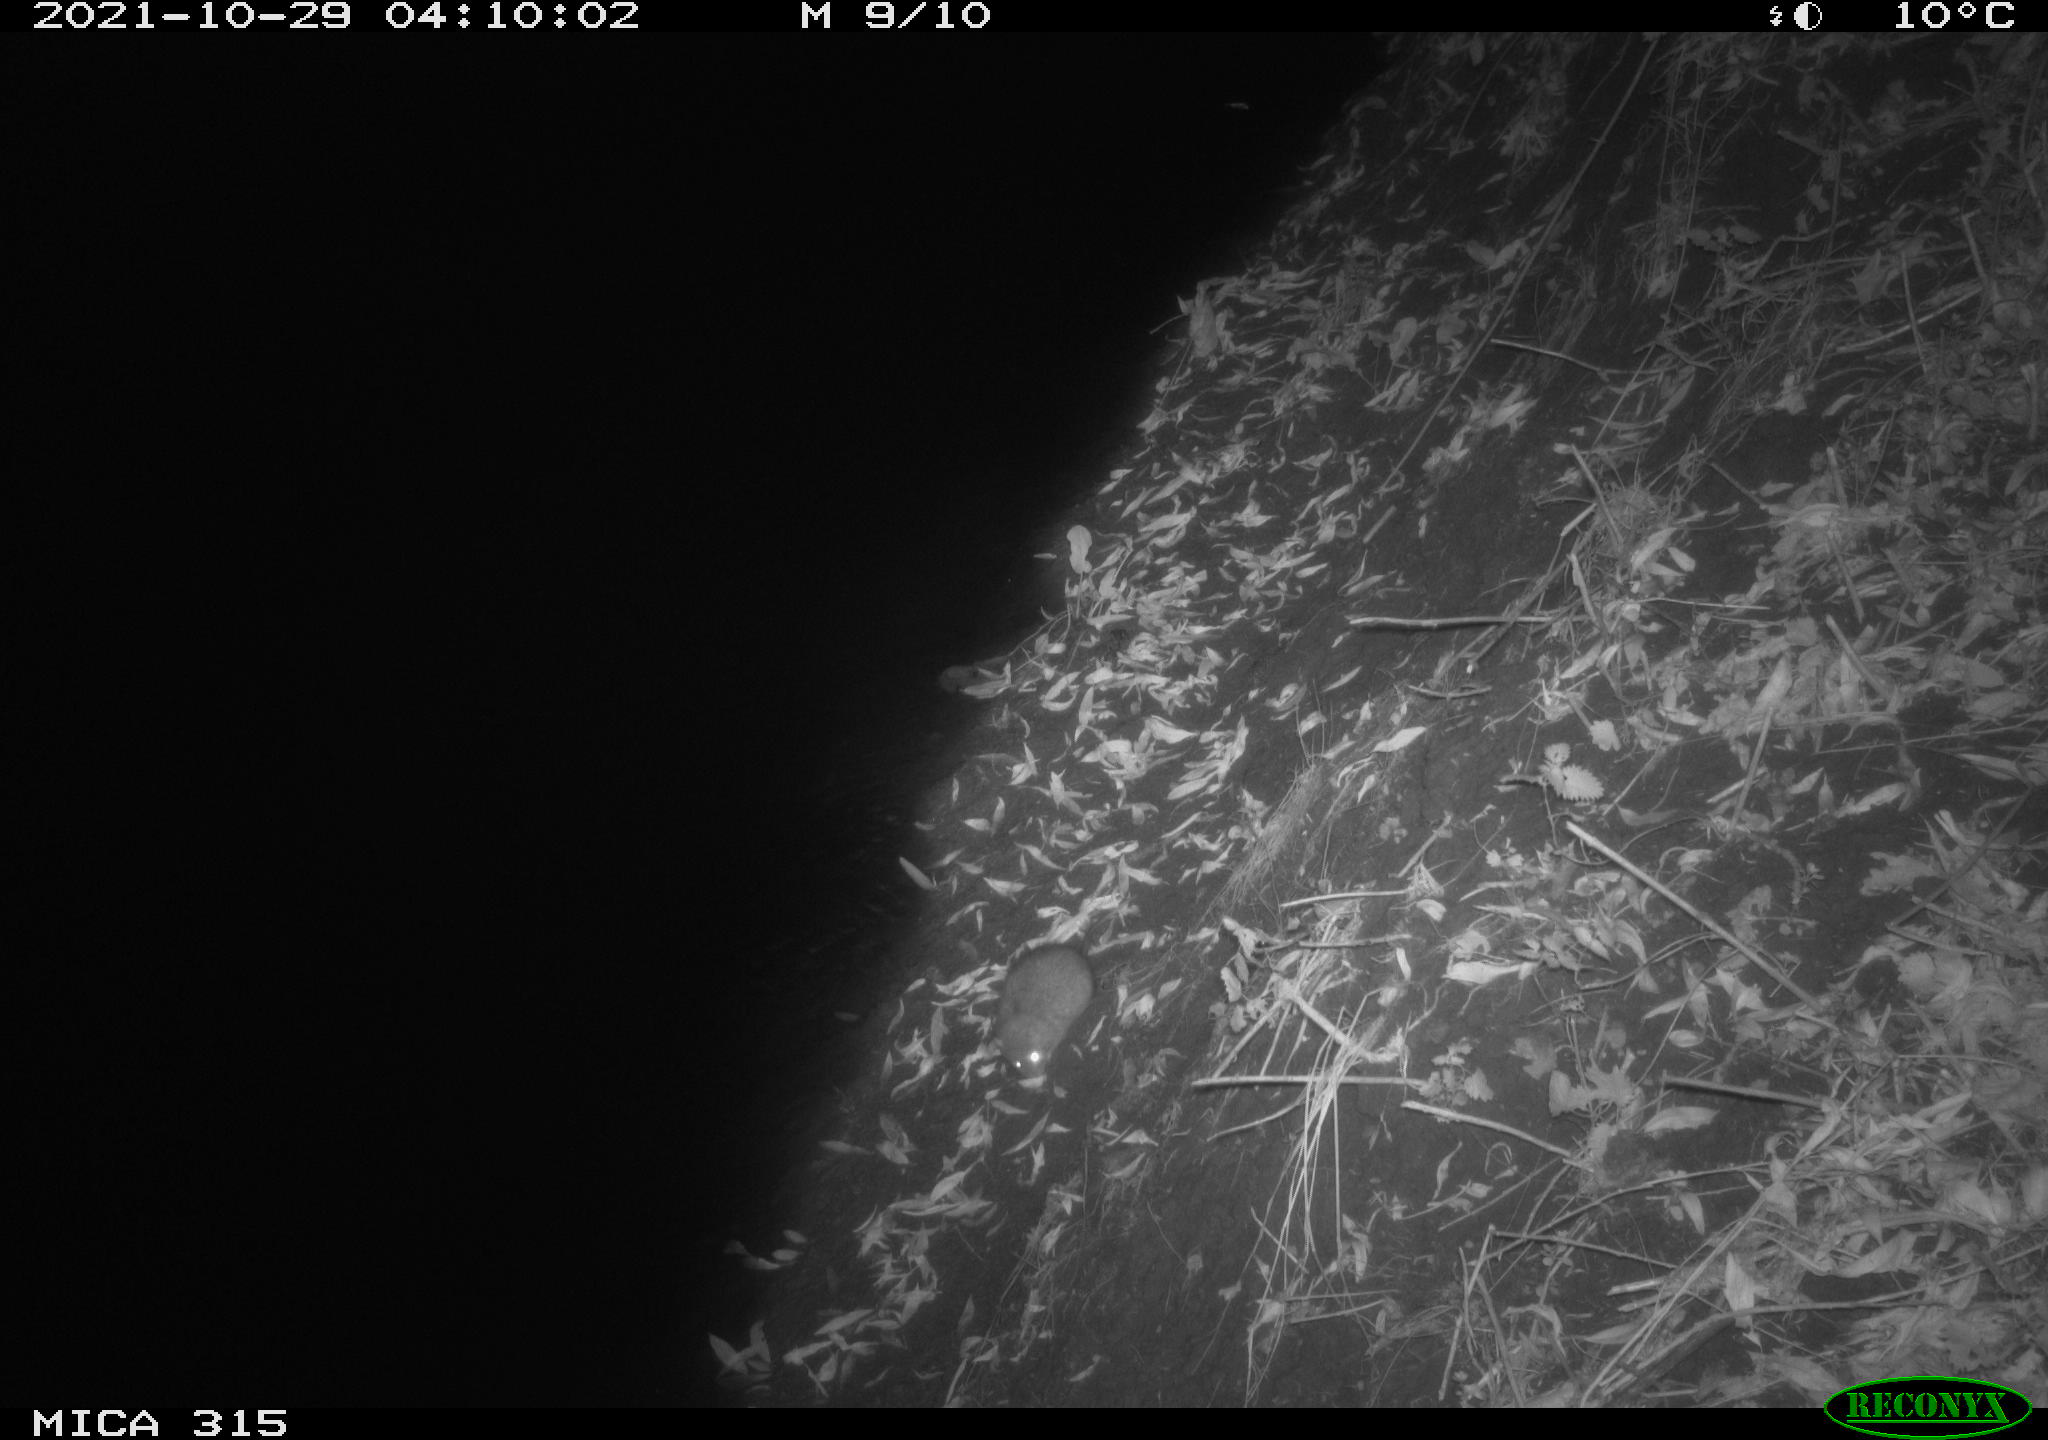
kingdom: Animalia
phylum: Chordata
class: Mammalia
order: Rodentia
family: Muridae
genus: Rattus
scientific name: Rattus norvegicus
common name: Brown rat
